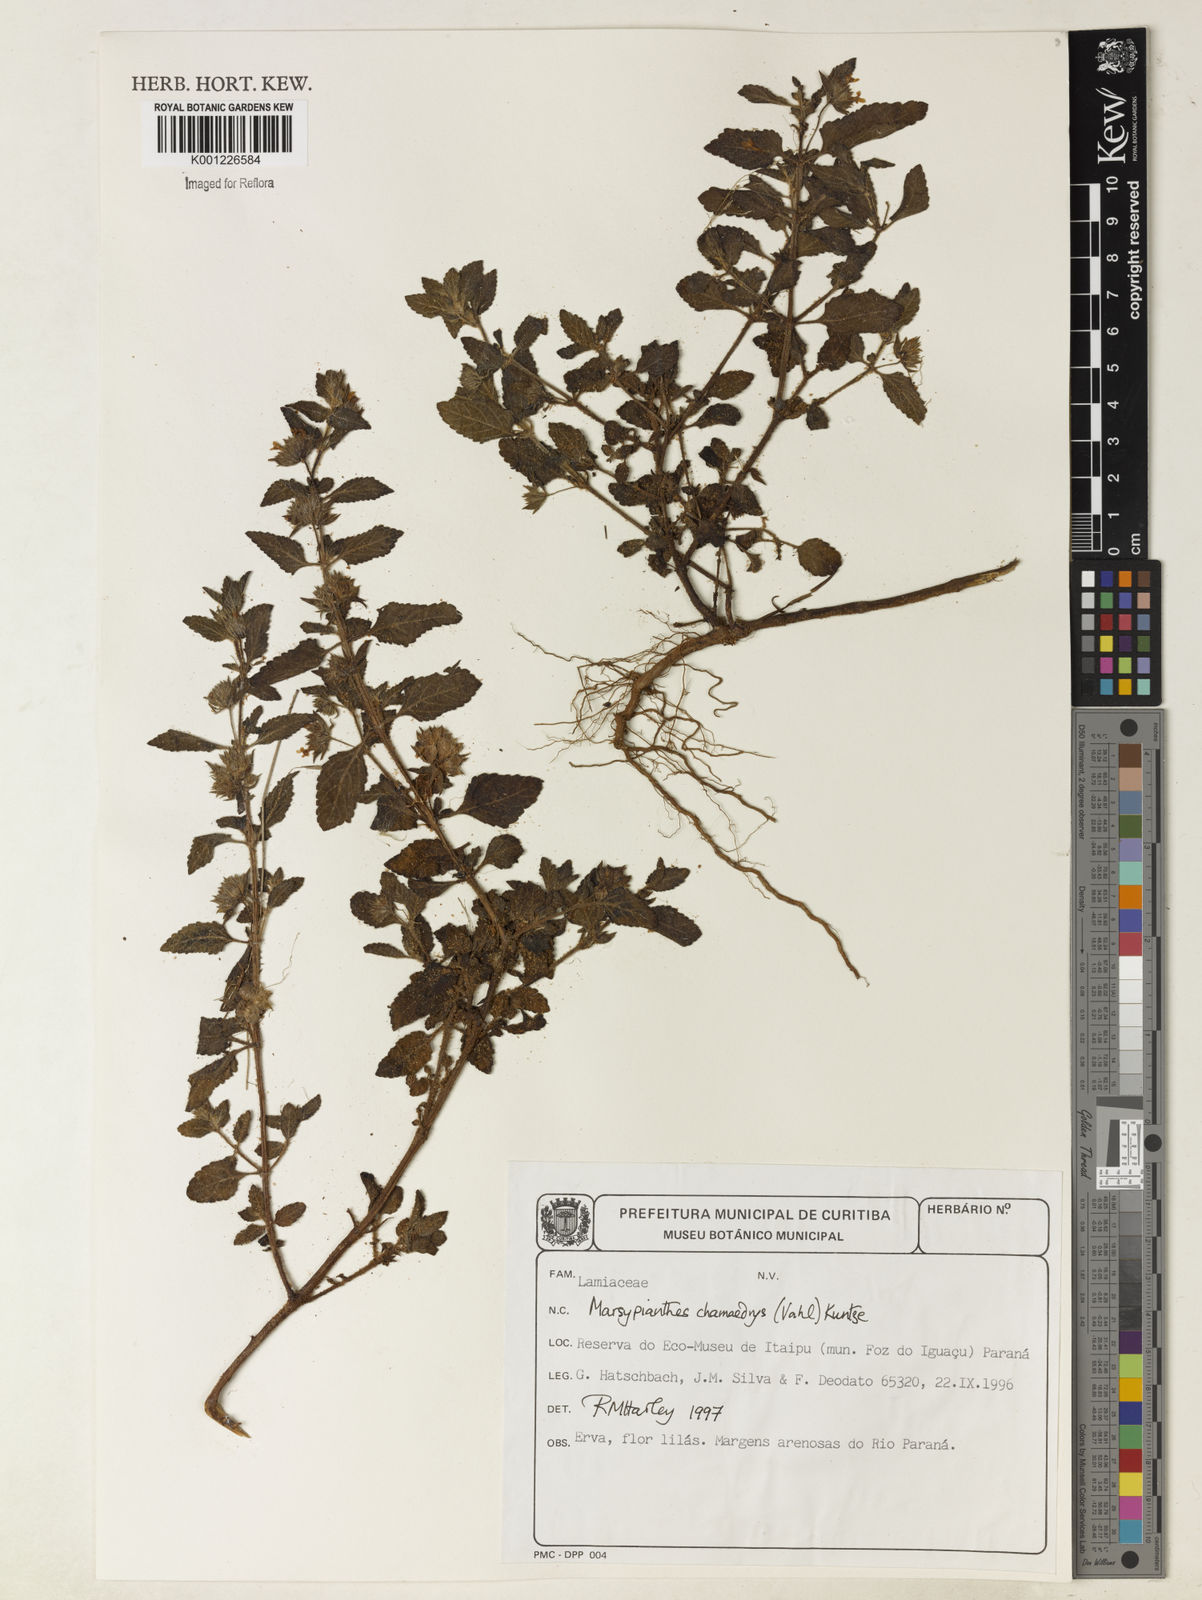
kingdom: Plantae
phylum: Tracheophyta
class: Magnoliopsida
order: Lamiales
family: Lamiaceae
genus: Marsypianthes
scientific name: Marsypianthes chamaedrys
